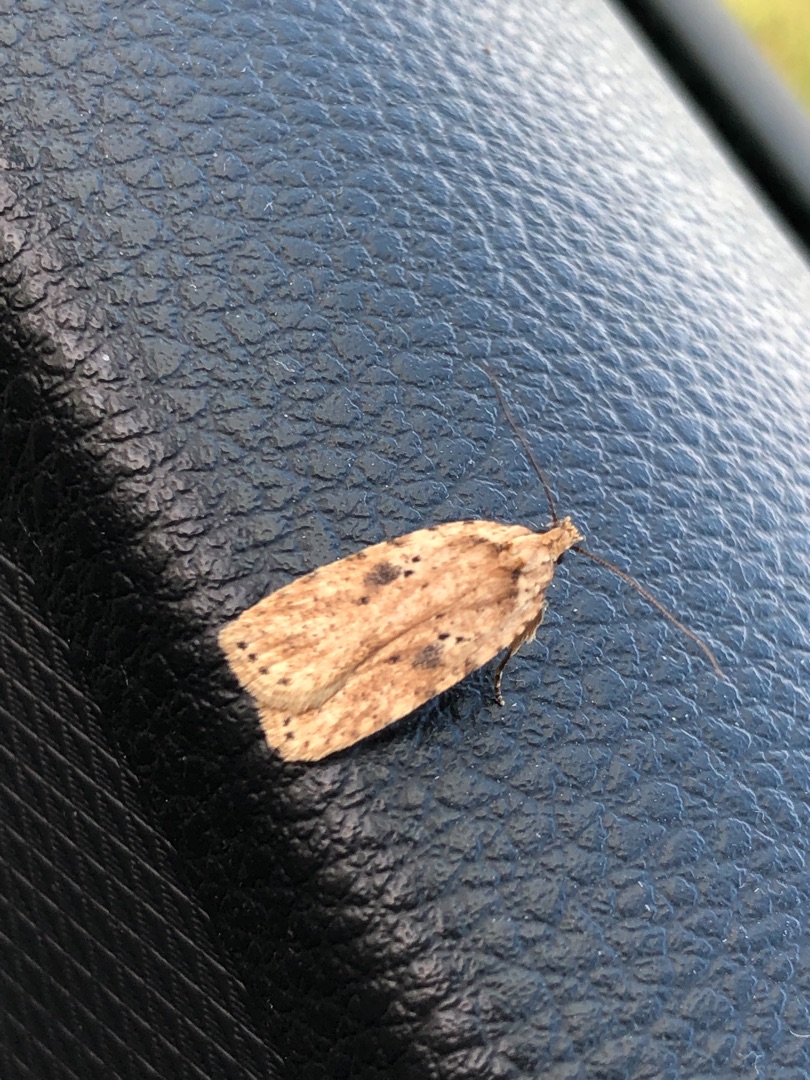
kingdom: Animalia
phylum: Arthropoda
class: Insecta
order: Lepidoptera
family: Depressariidae
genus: Agonopterix
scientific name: Agonopterix arenella
